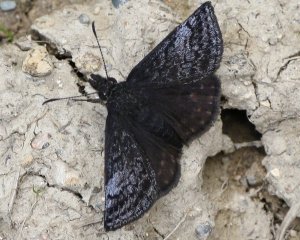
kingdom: Animalia
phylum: Arthropoda
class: Insecta
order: Lepidoptera
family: Hesperiidae
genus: Erynnis
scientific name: Erynnis icelus
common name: Dreamy Duskywing
